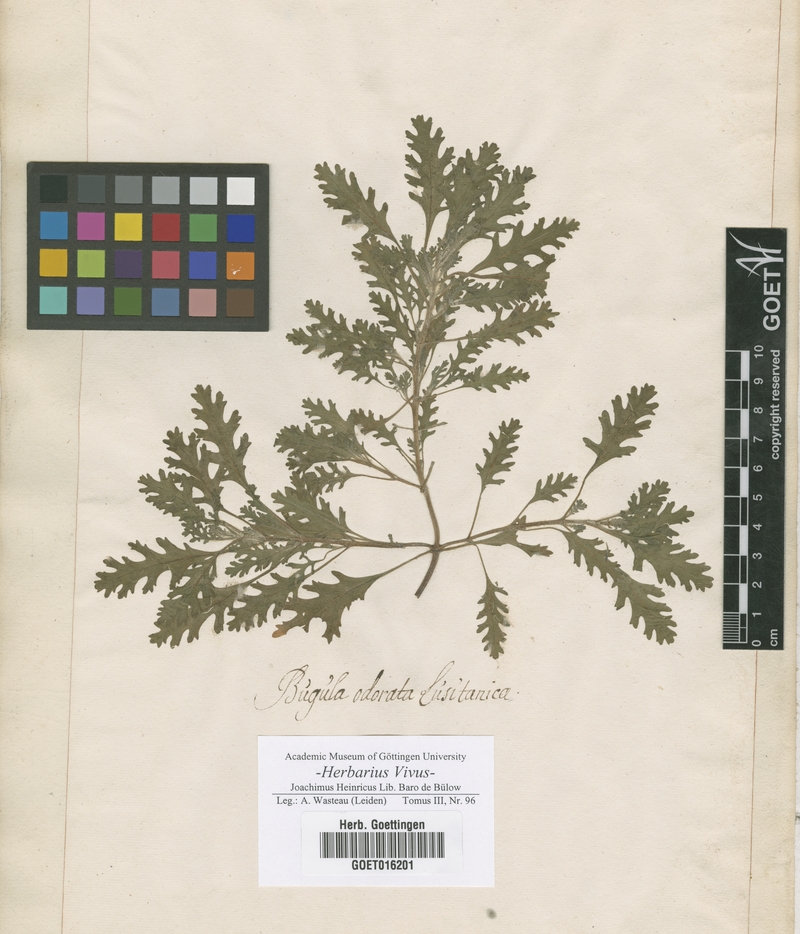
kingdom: Plantae
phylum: Tracheophyta
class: Magnoliopsida
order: Lamiales
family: Lamiaceae
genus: Cleonia
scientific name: Cleonia lusitanica
